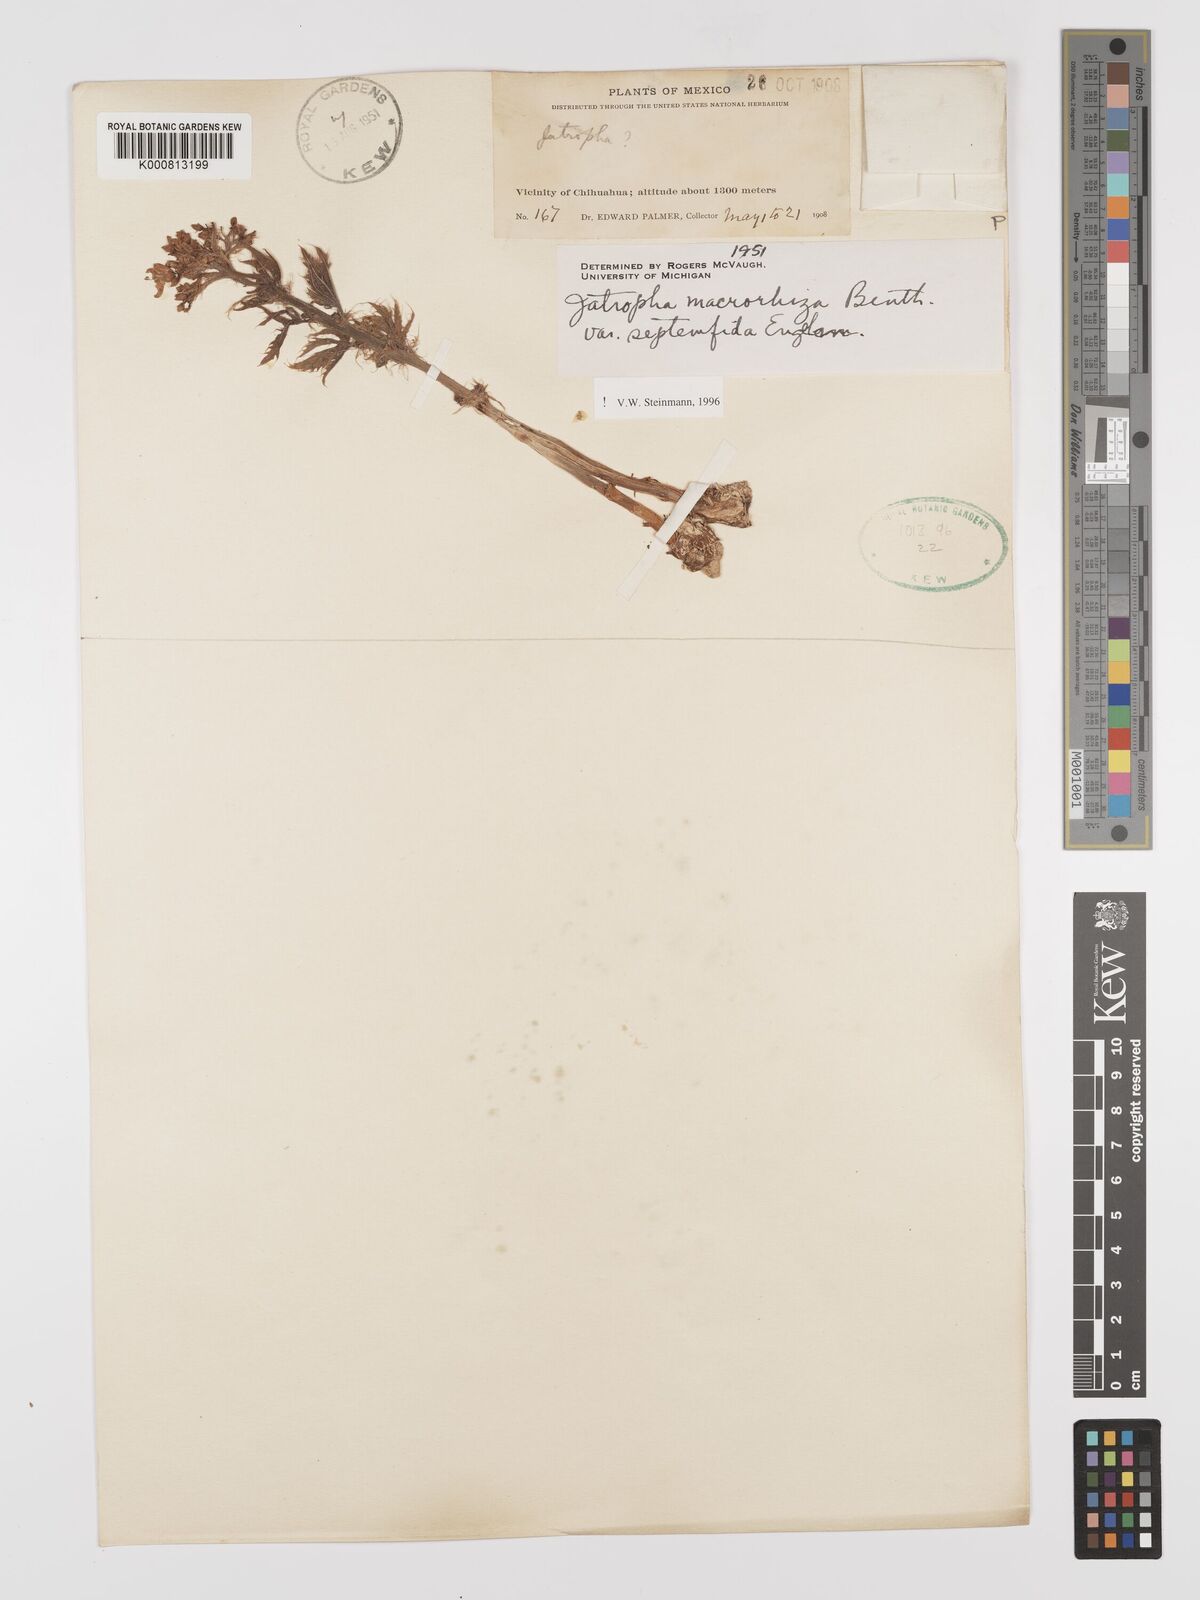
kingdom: Plantae
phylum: Tracheophyta
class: Magnoliopsida
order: Malpighiales
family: Euphorbiaceae
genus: Jatropha
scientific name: Jatropha macrorhiza
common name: Ragged nettlespurge
